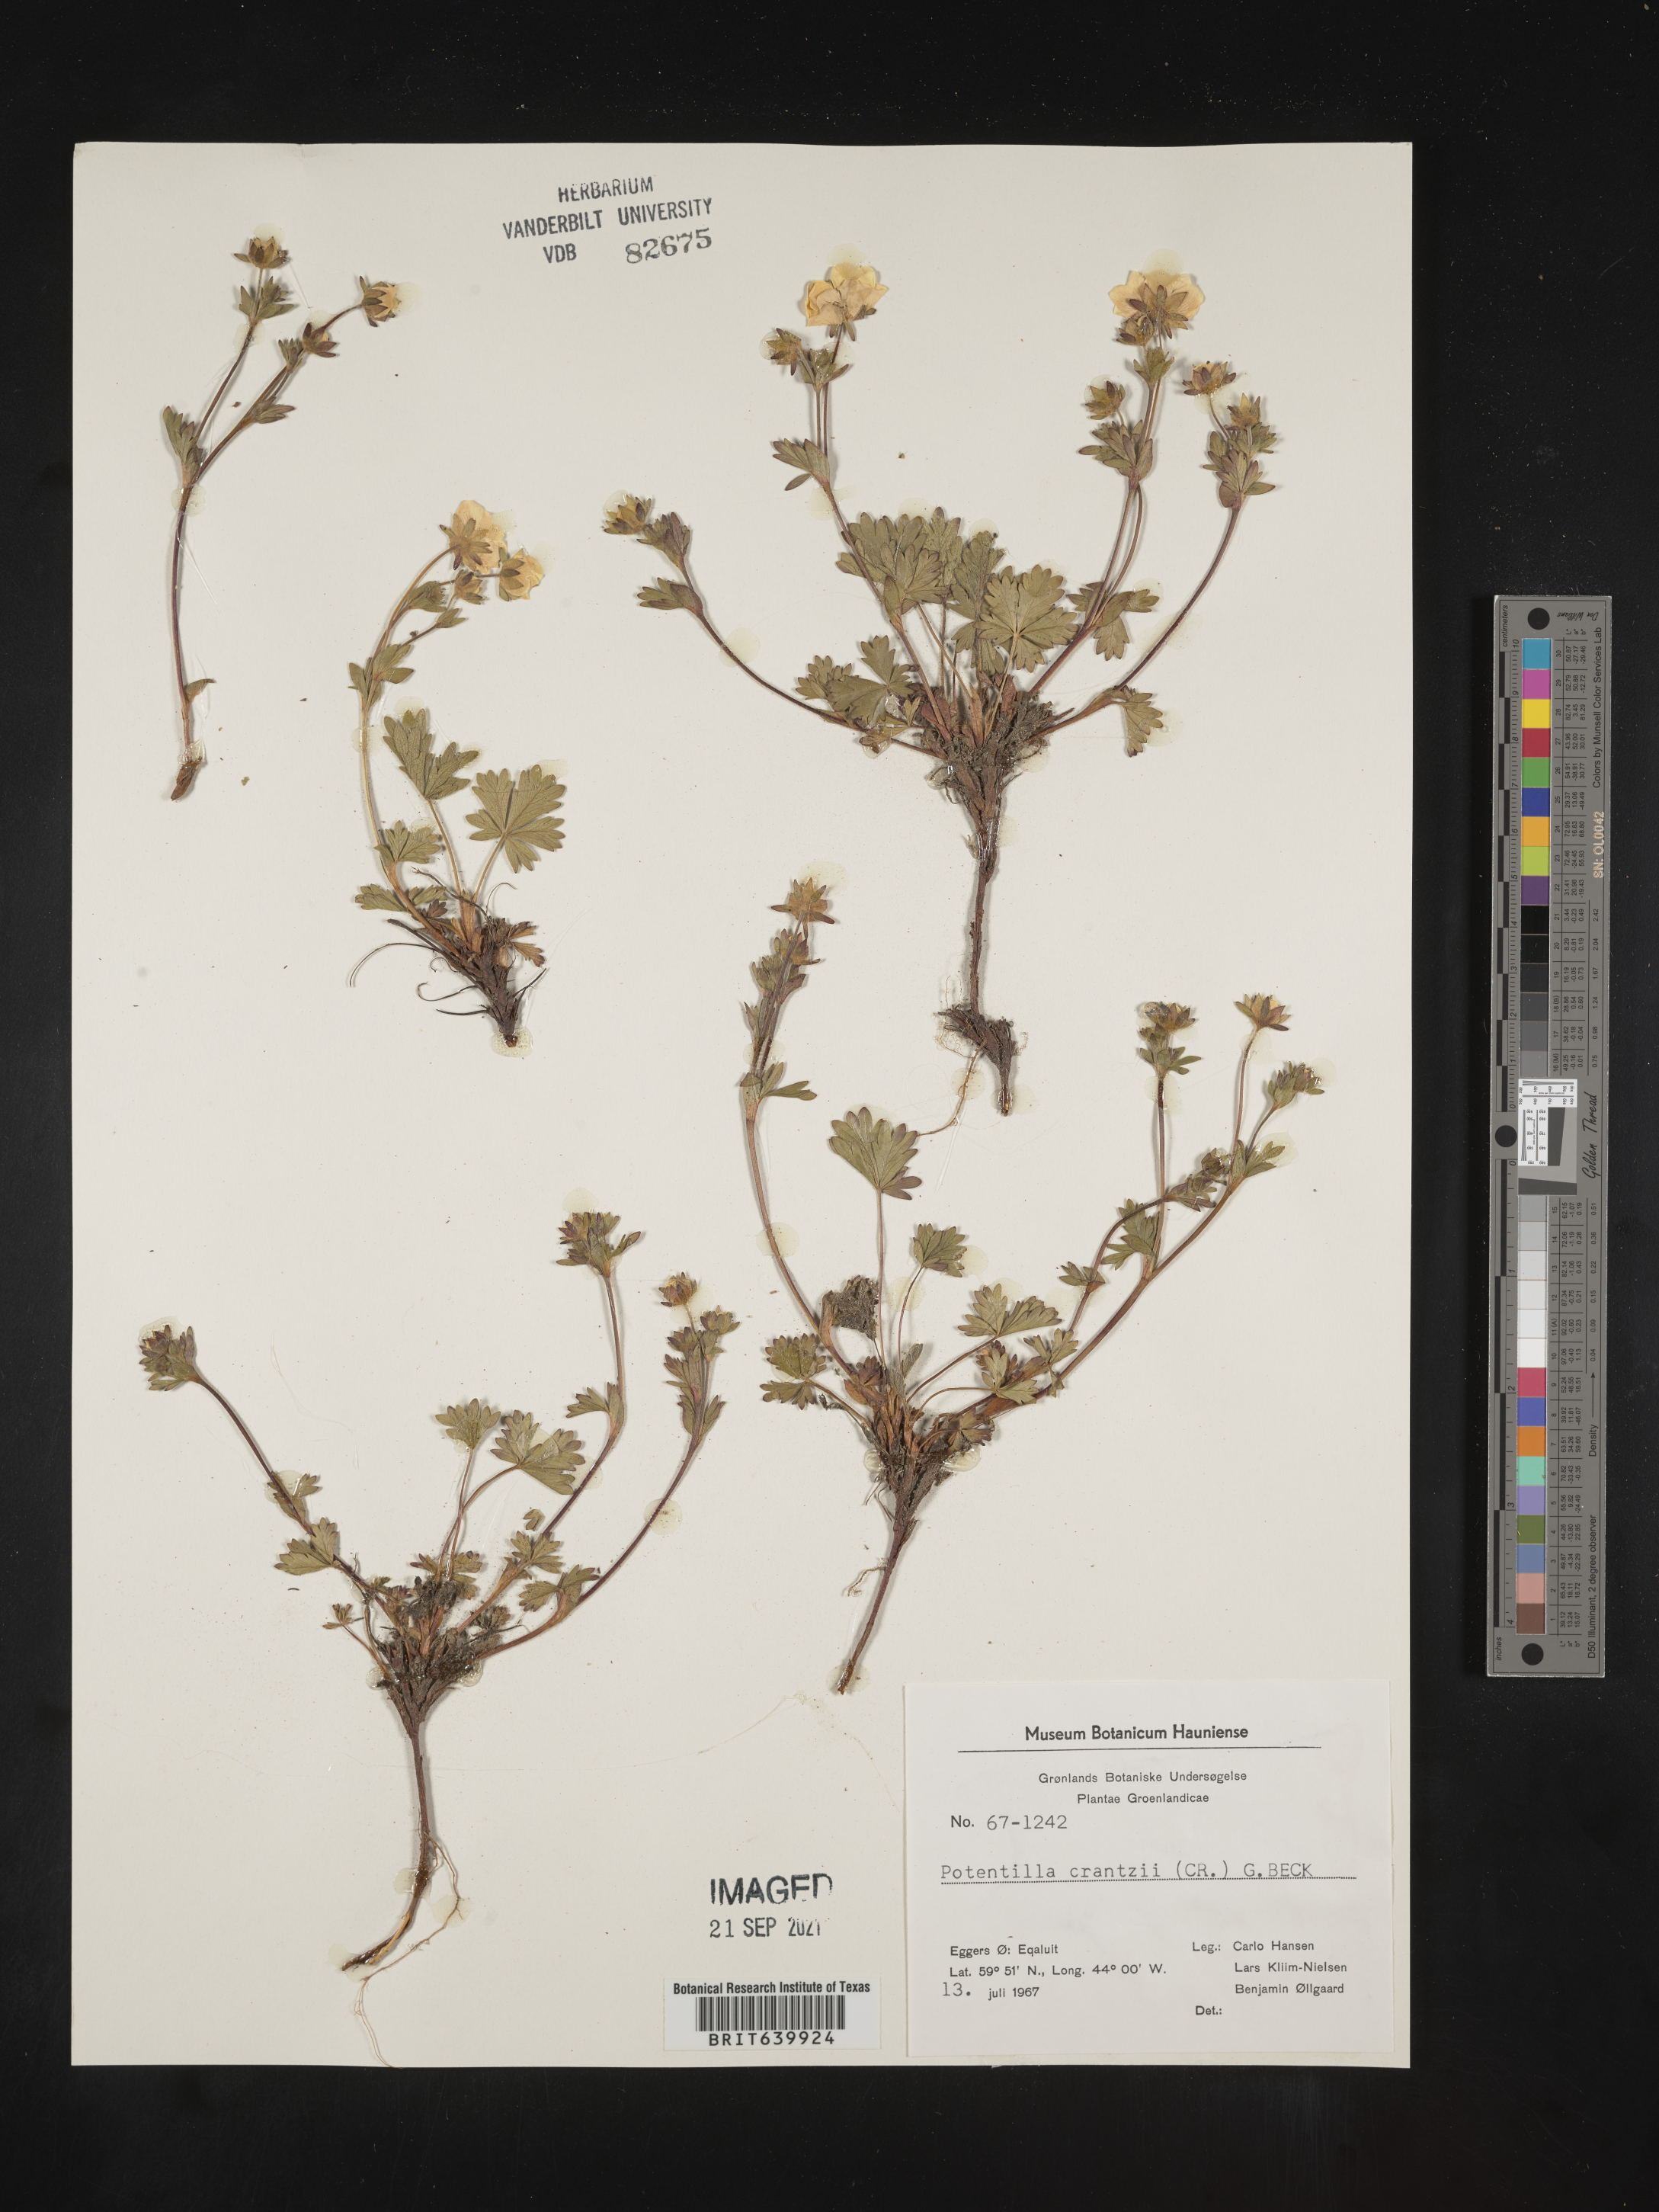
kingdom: Plantae
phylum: Tracheophyta
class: Magnoliopsida
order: Rosales
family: Rosaceae
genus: Potentilla
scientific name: Potentilla
